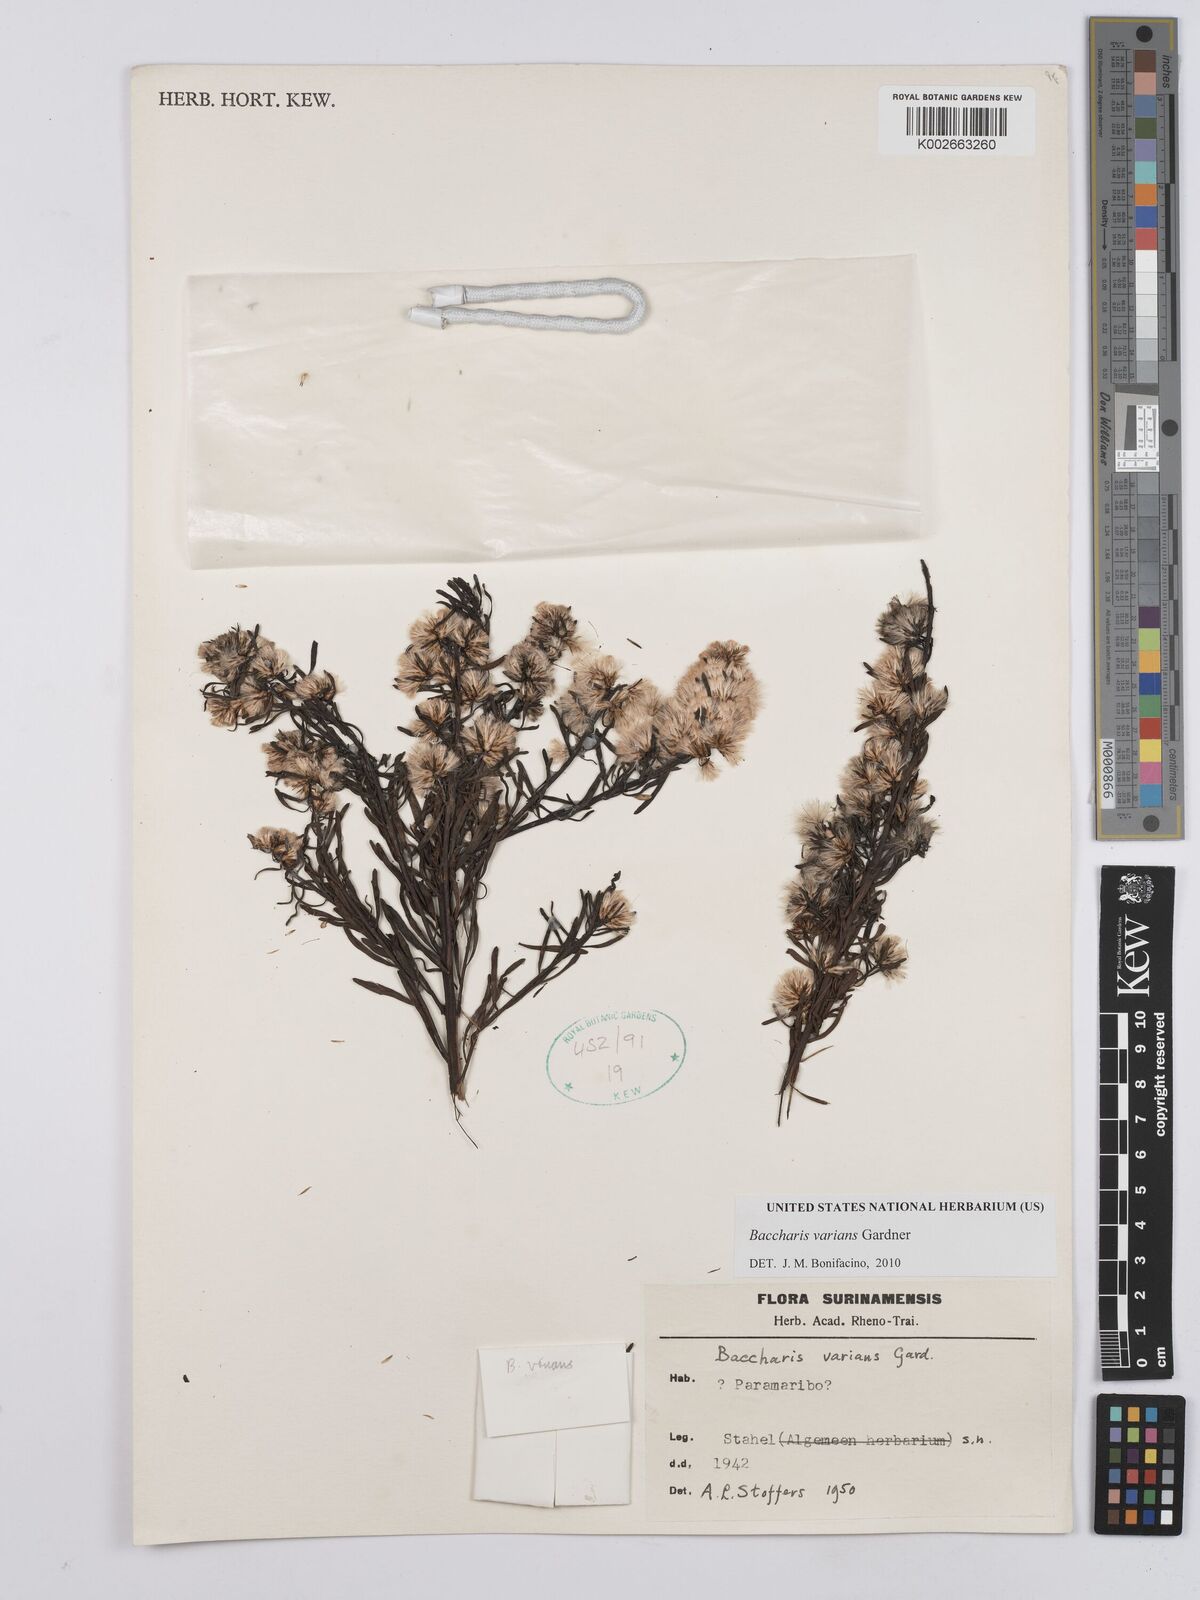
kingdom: Plantae
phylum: Tracheophyta
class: Magnoliopsida
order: Asterales
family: Asteraceae
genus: Baccharis
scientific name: Baccharis varians
